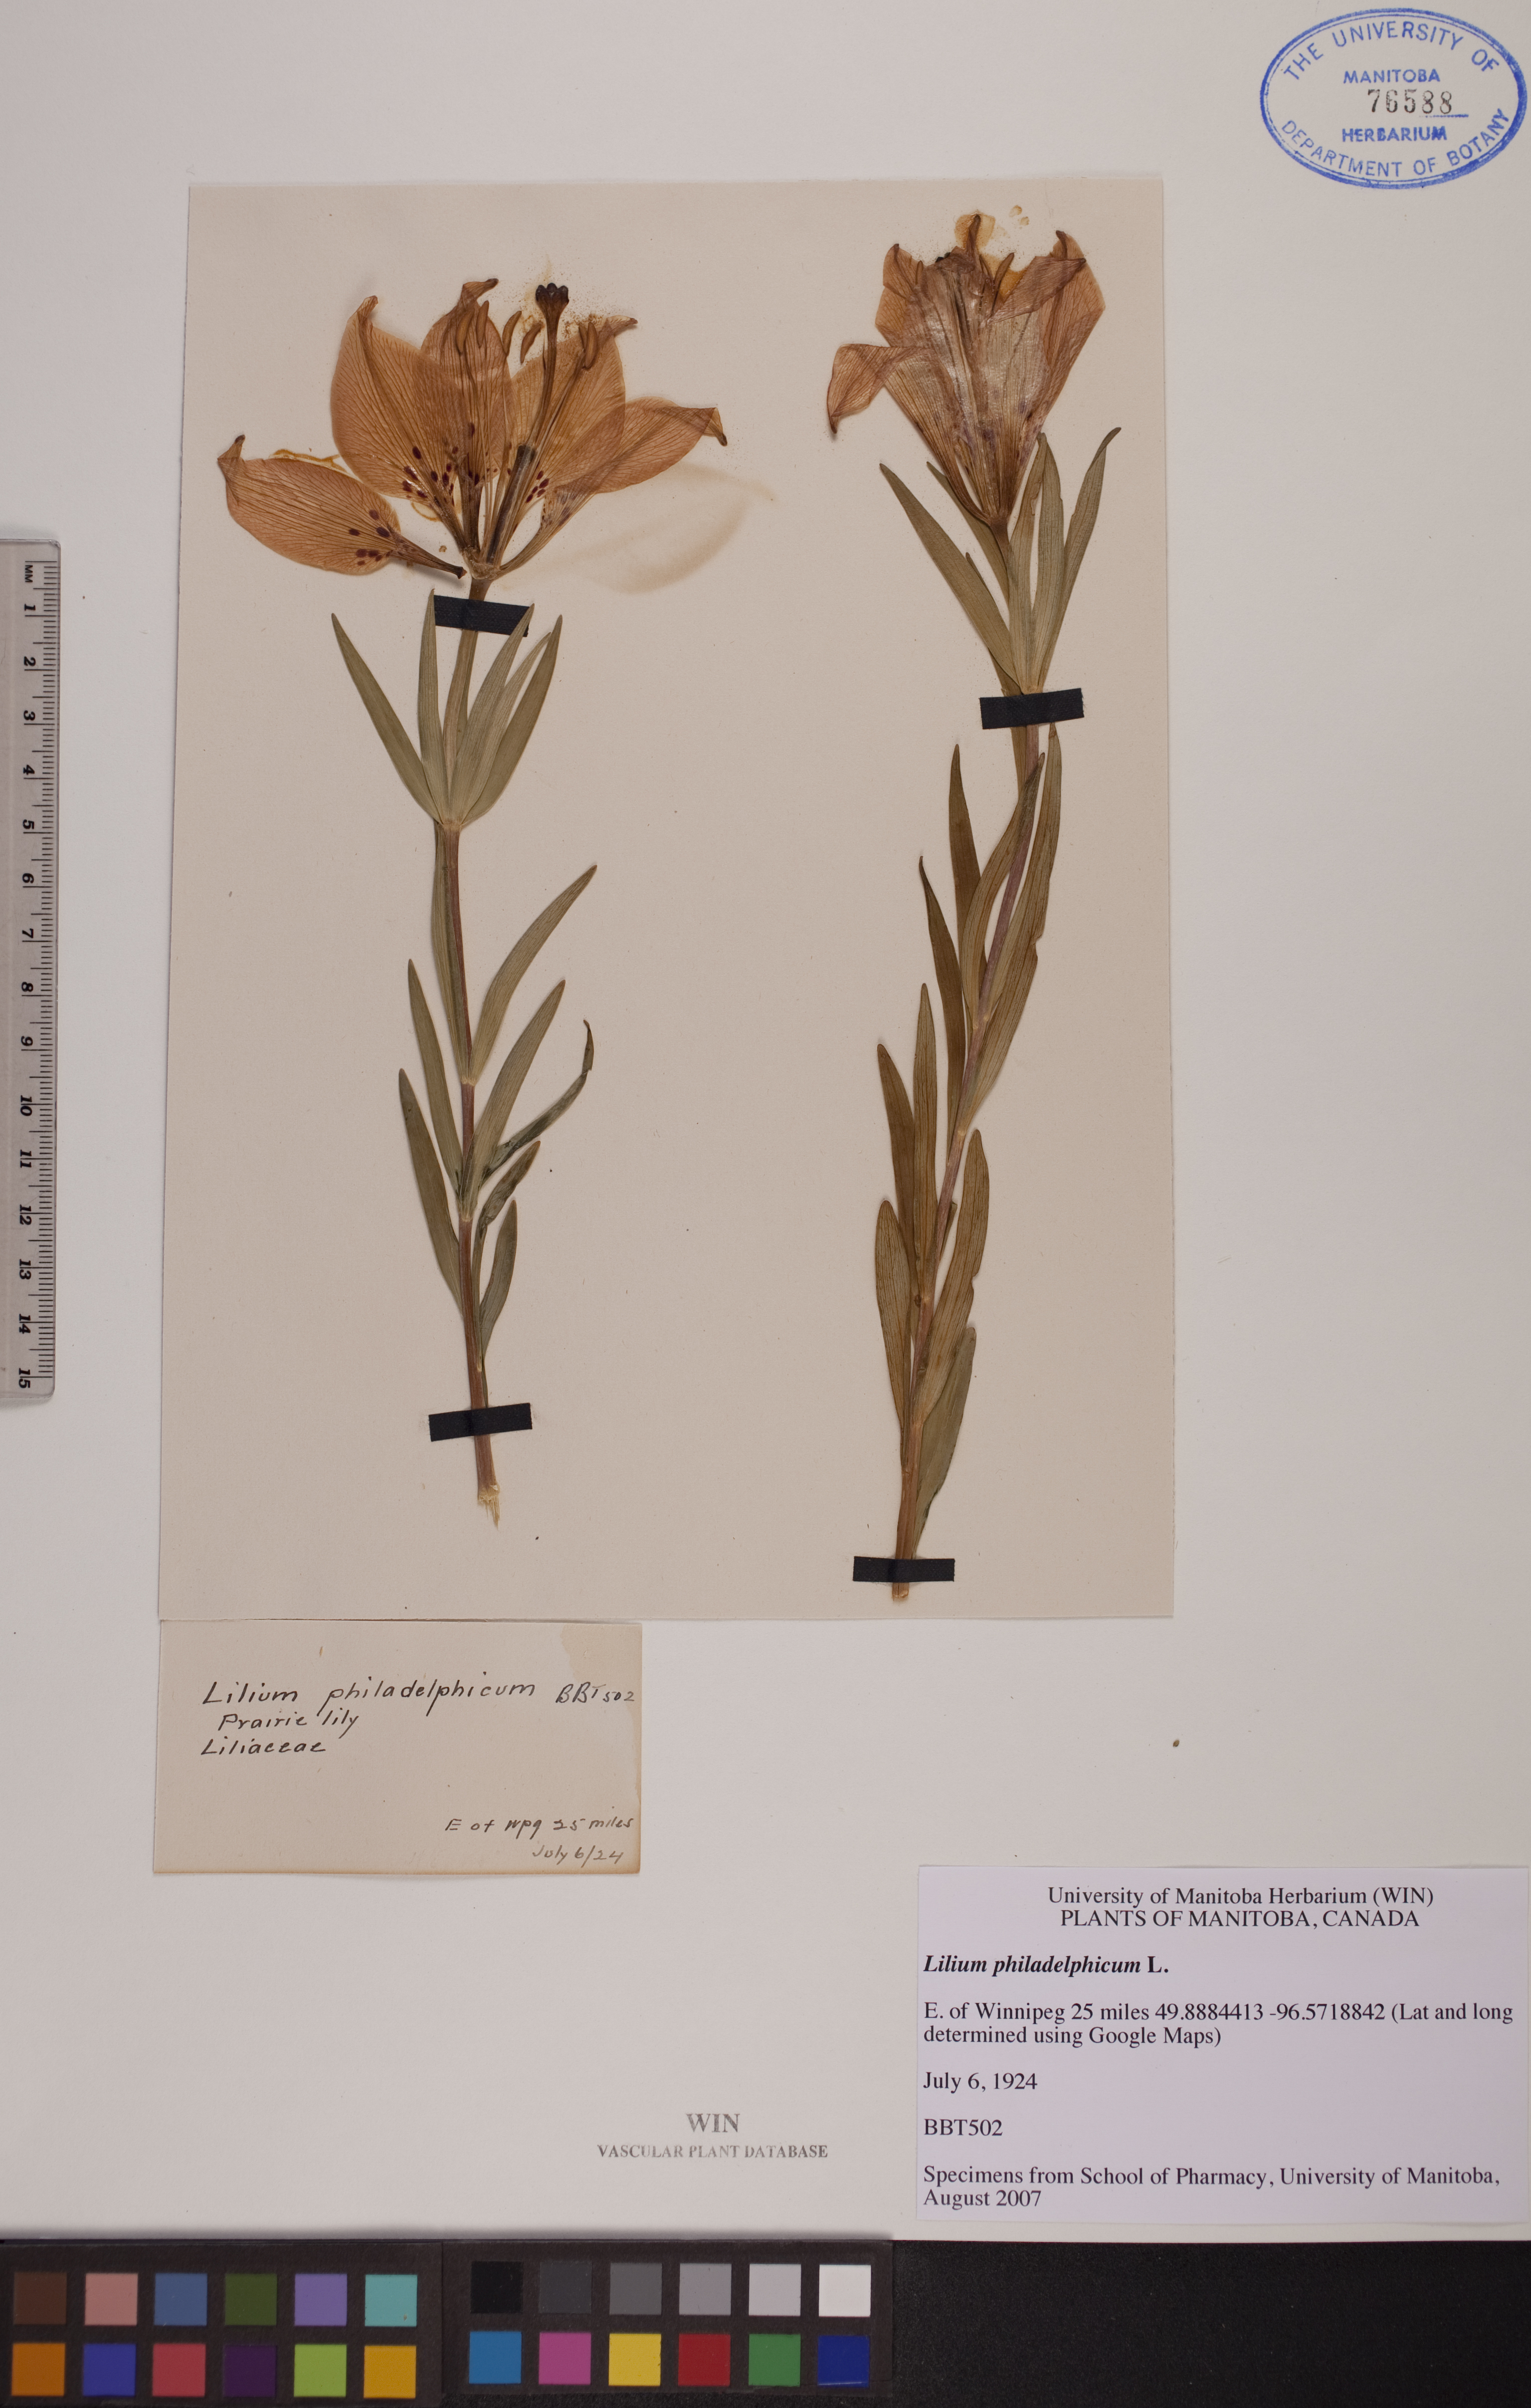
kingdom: Plantae
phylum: Tracheophyta
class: Liliopsida
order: Liliales
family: Liliaceae
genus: Lilium
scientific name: Lilium philadelphicum
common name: Red lily
